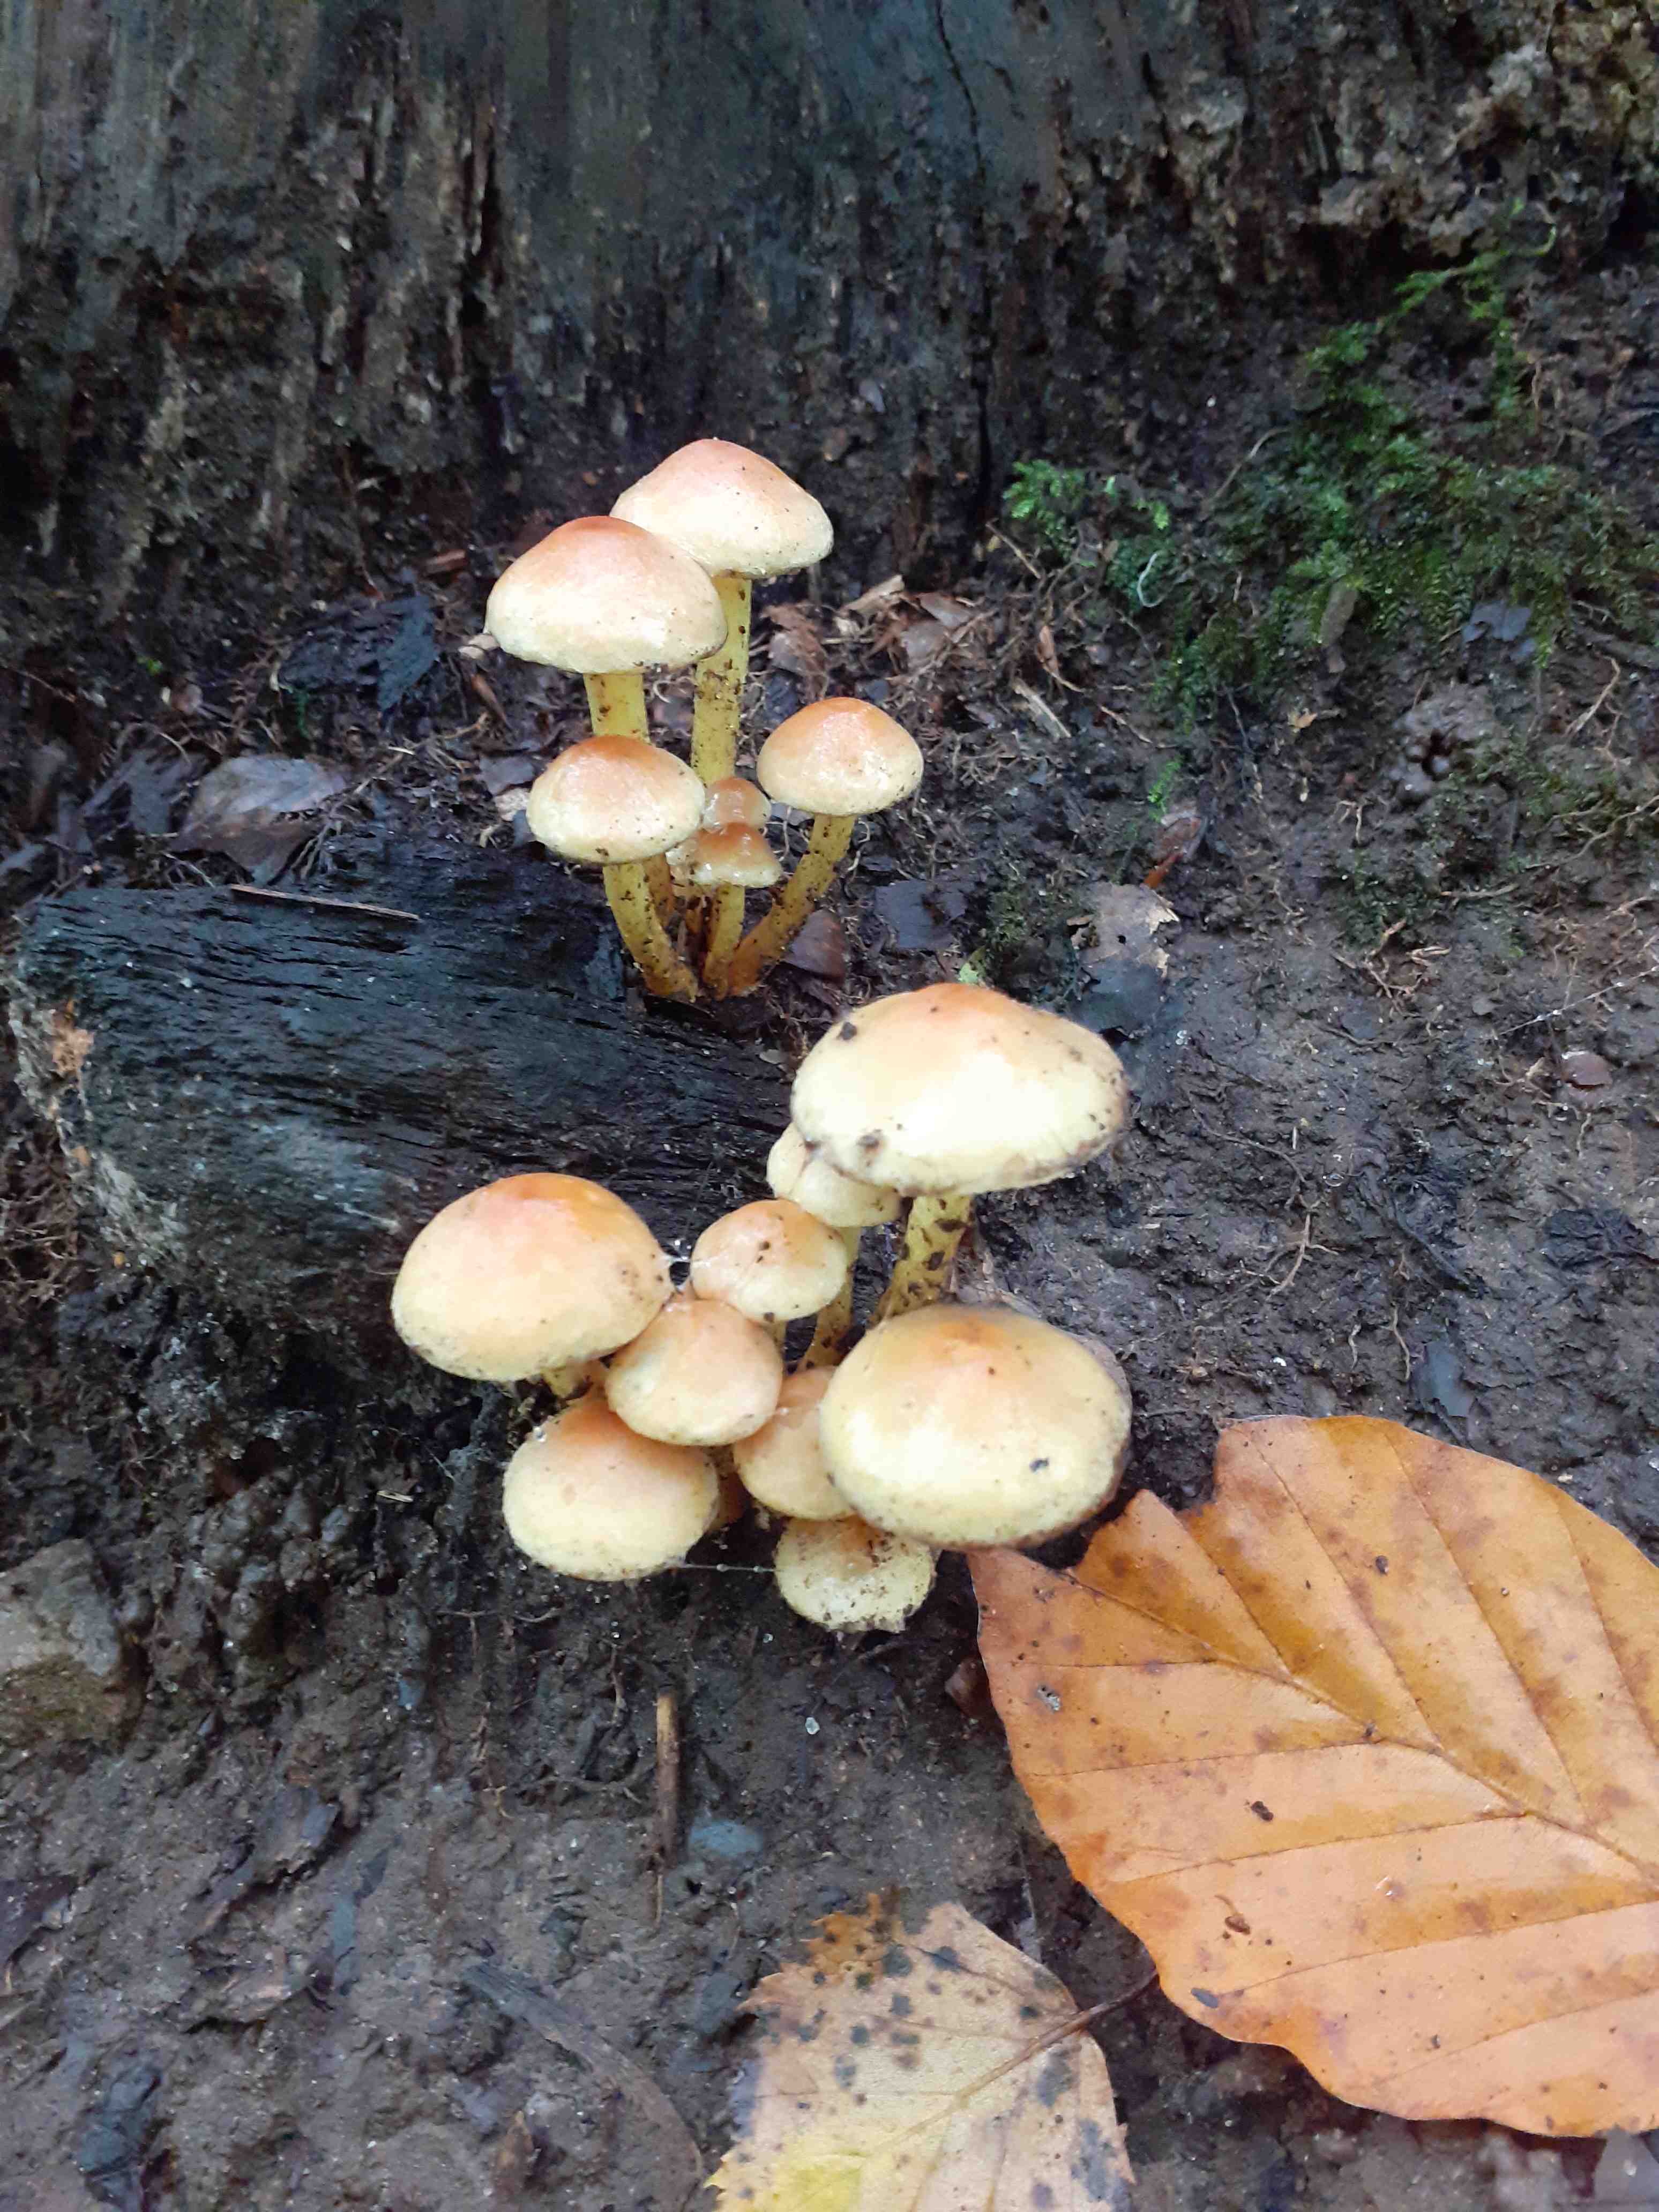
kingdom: Fungi
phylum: Basidiomycota
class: Agaricomycetes
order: Agaricales
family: Strophariaceae
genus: Hypholoma
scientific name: Hypholoma
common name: svovlhat
